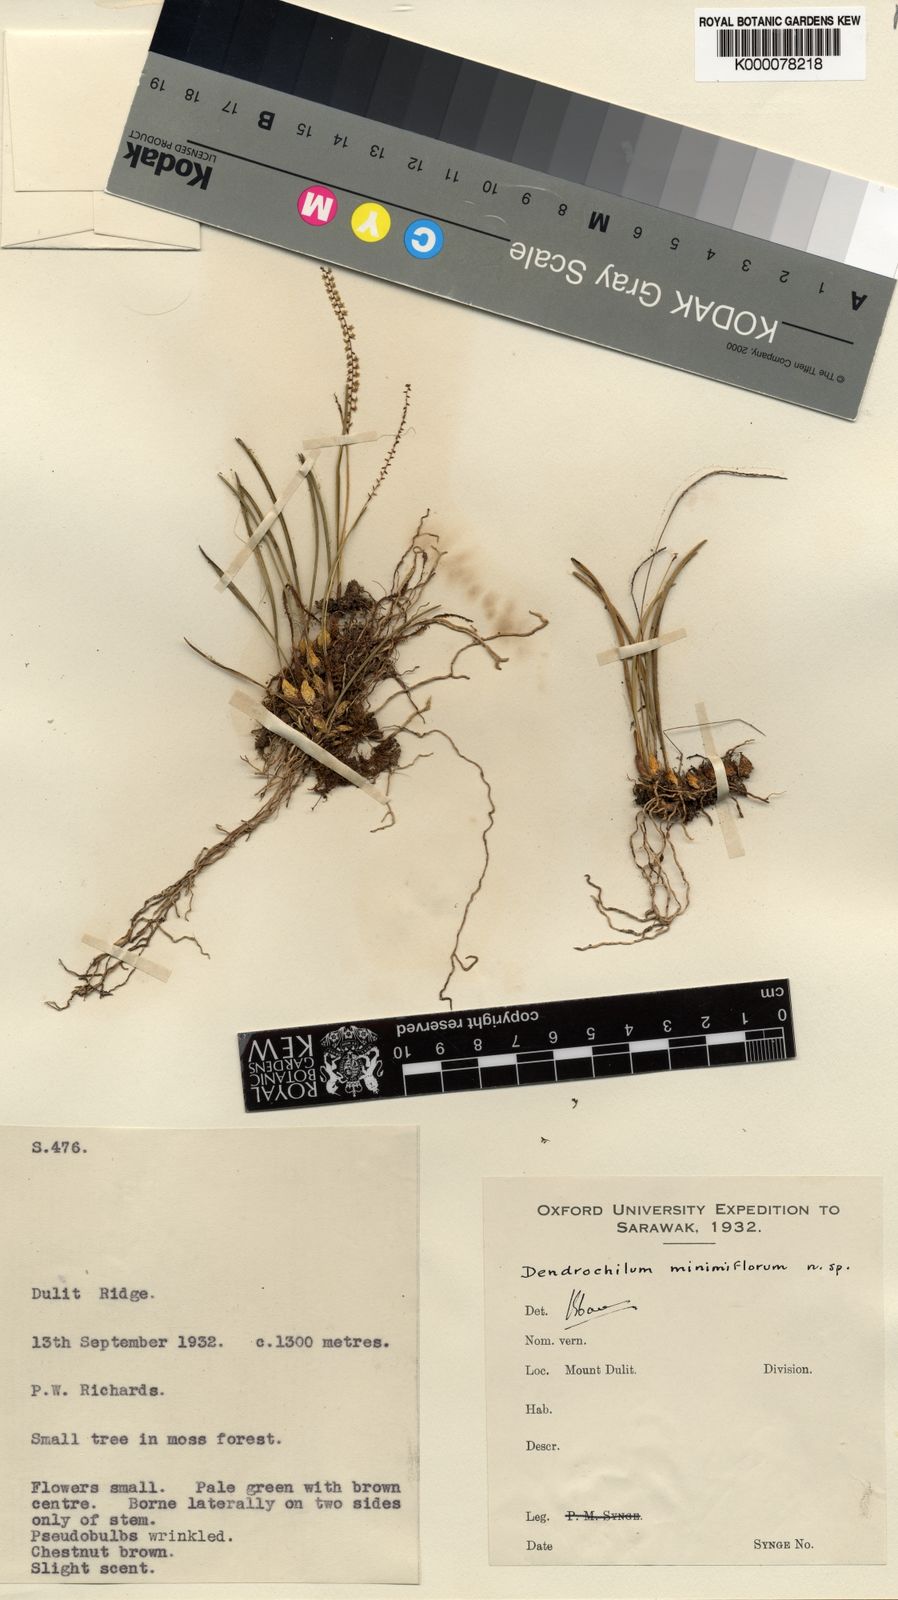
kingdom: Plantae
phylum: Tracheophyta
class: Liliopsida
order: Asparagales
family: Orchidaceae
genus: Coelogyne
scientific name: Coelogyne minimiflora
